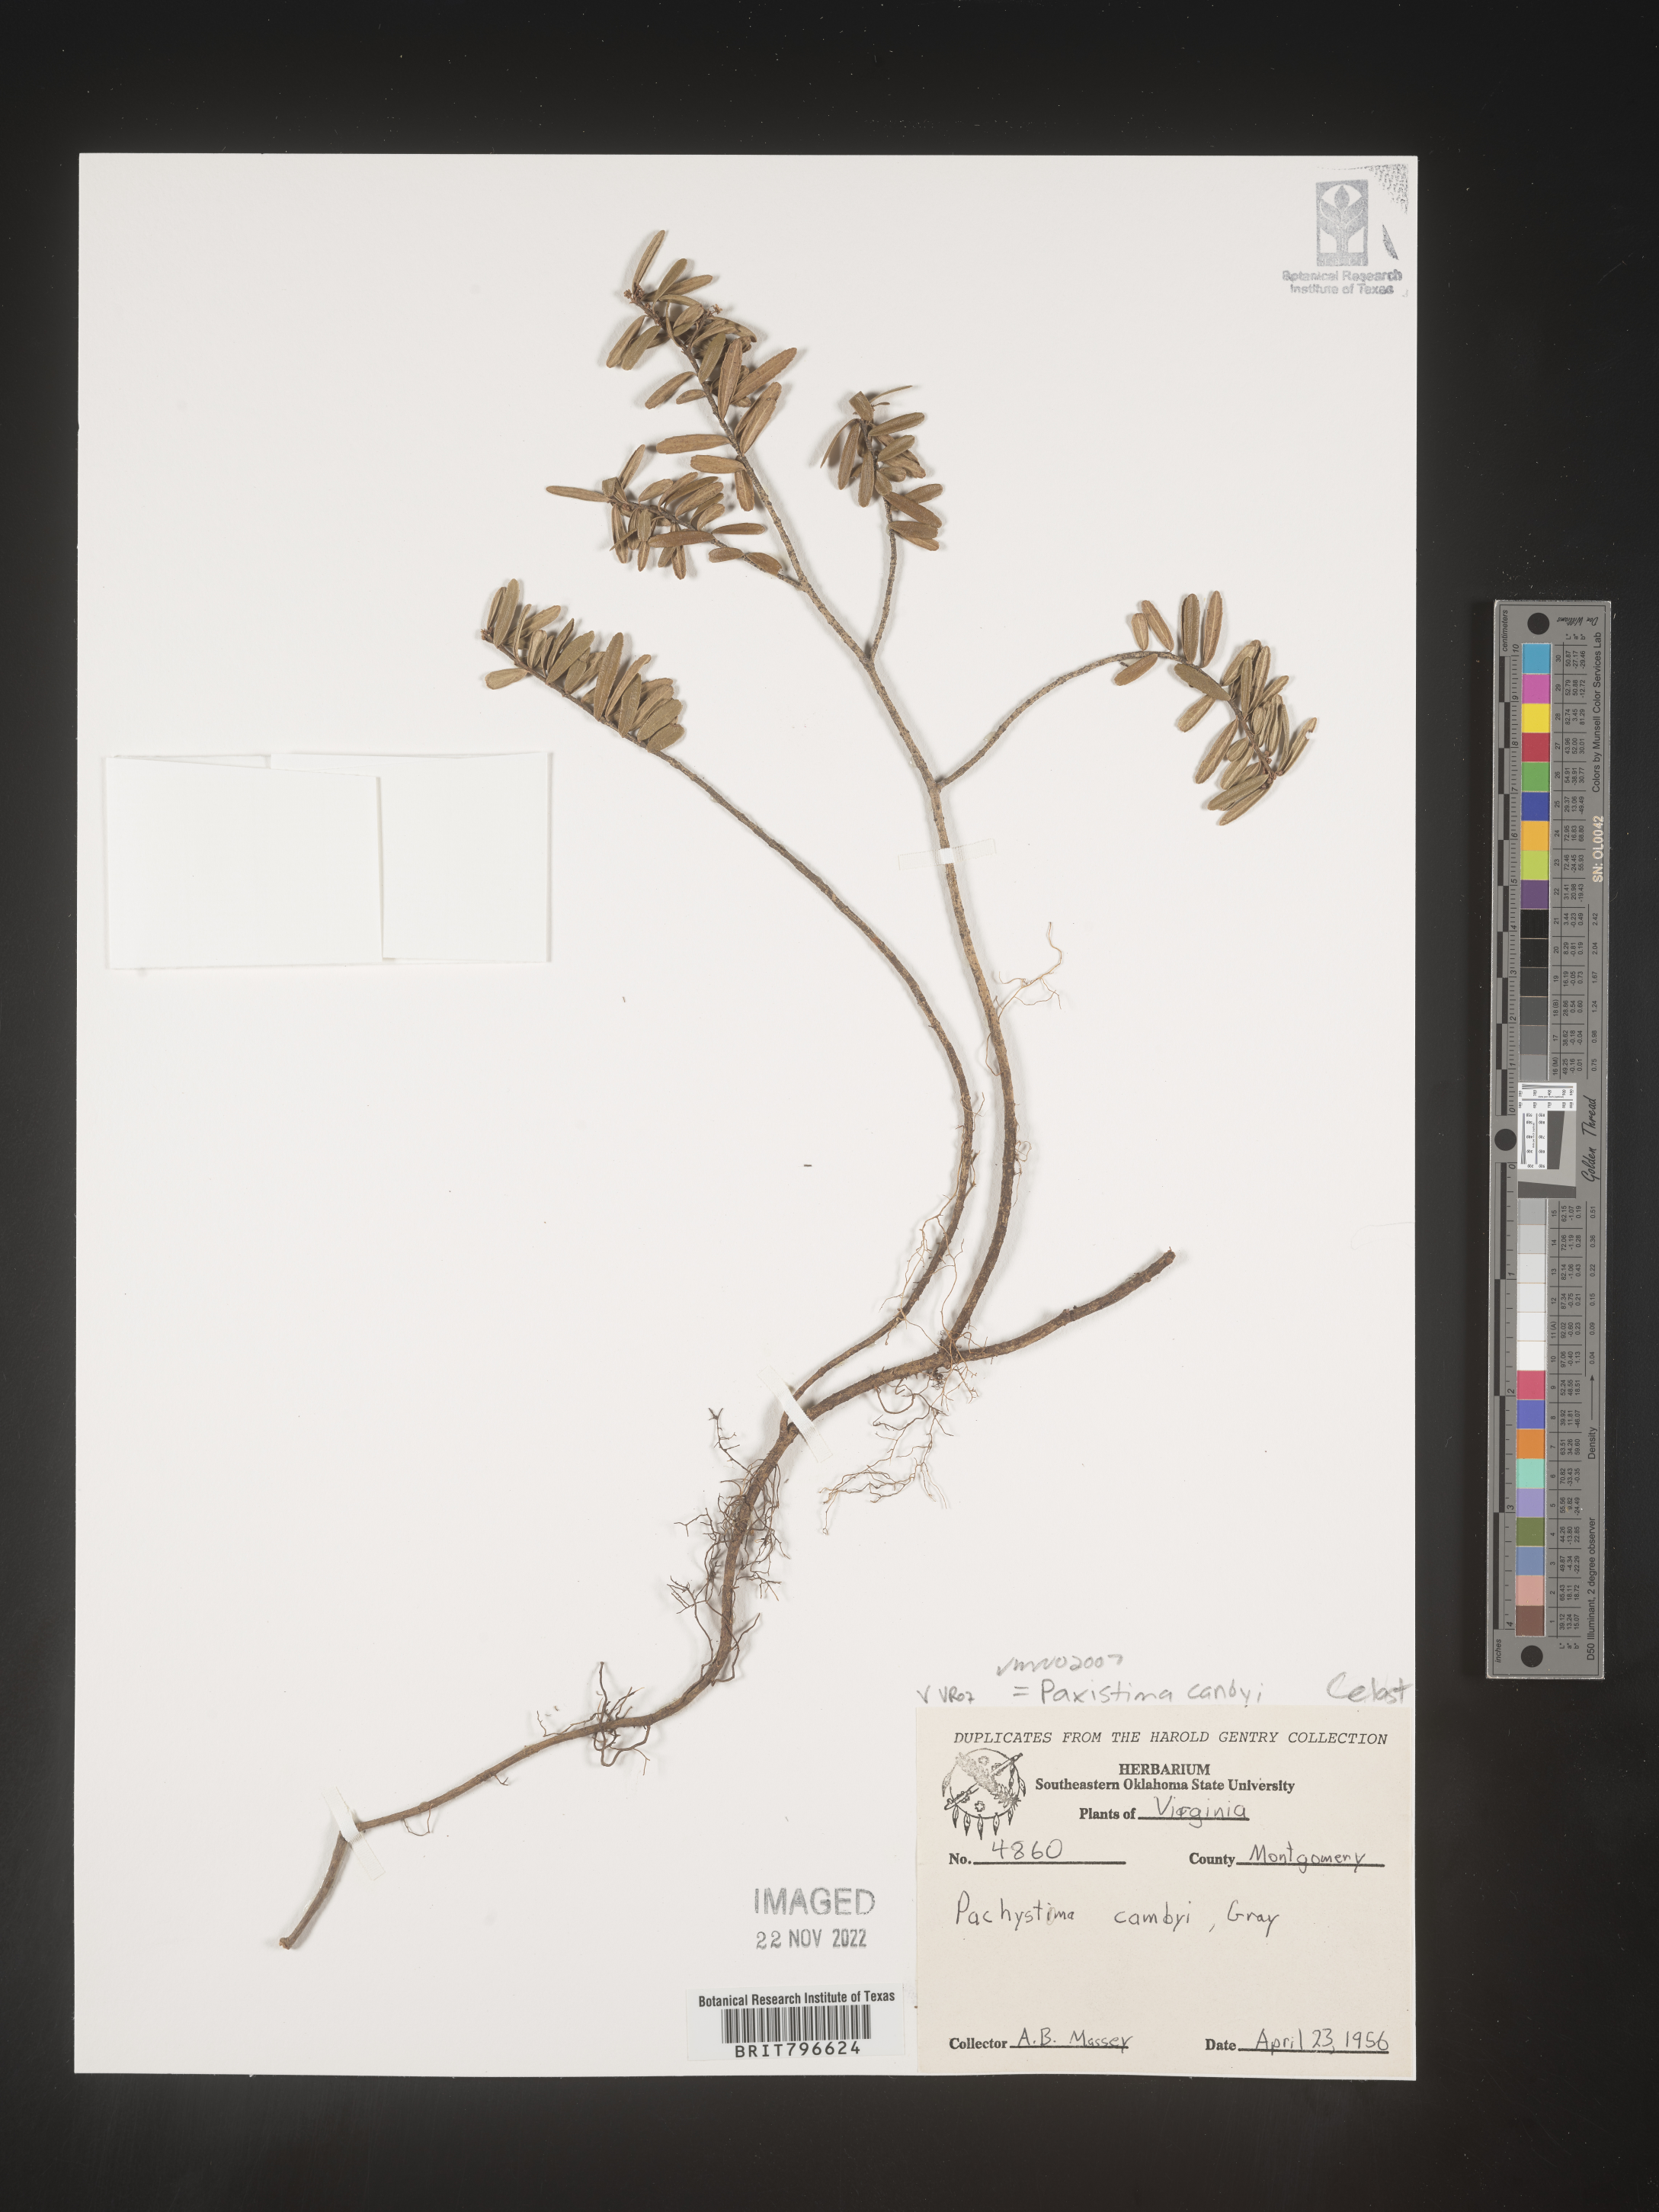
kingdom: Plantae
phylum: Tracheophyta
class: Magnoliopsida
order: Celastrales
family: Celastraceae
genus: Paxistima
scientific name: Paxistima canbyi
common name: Cliffgreen
